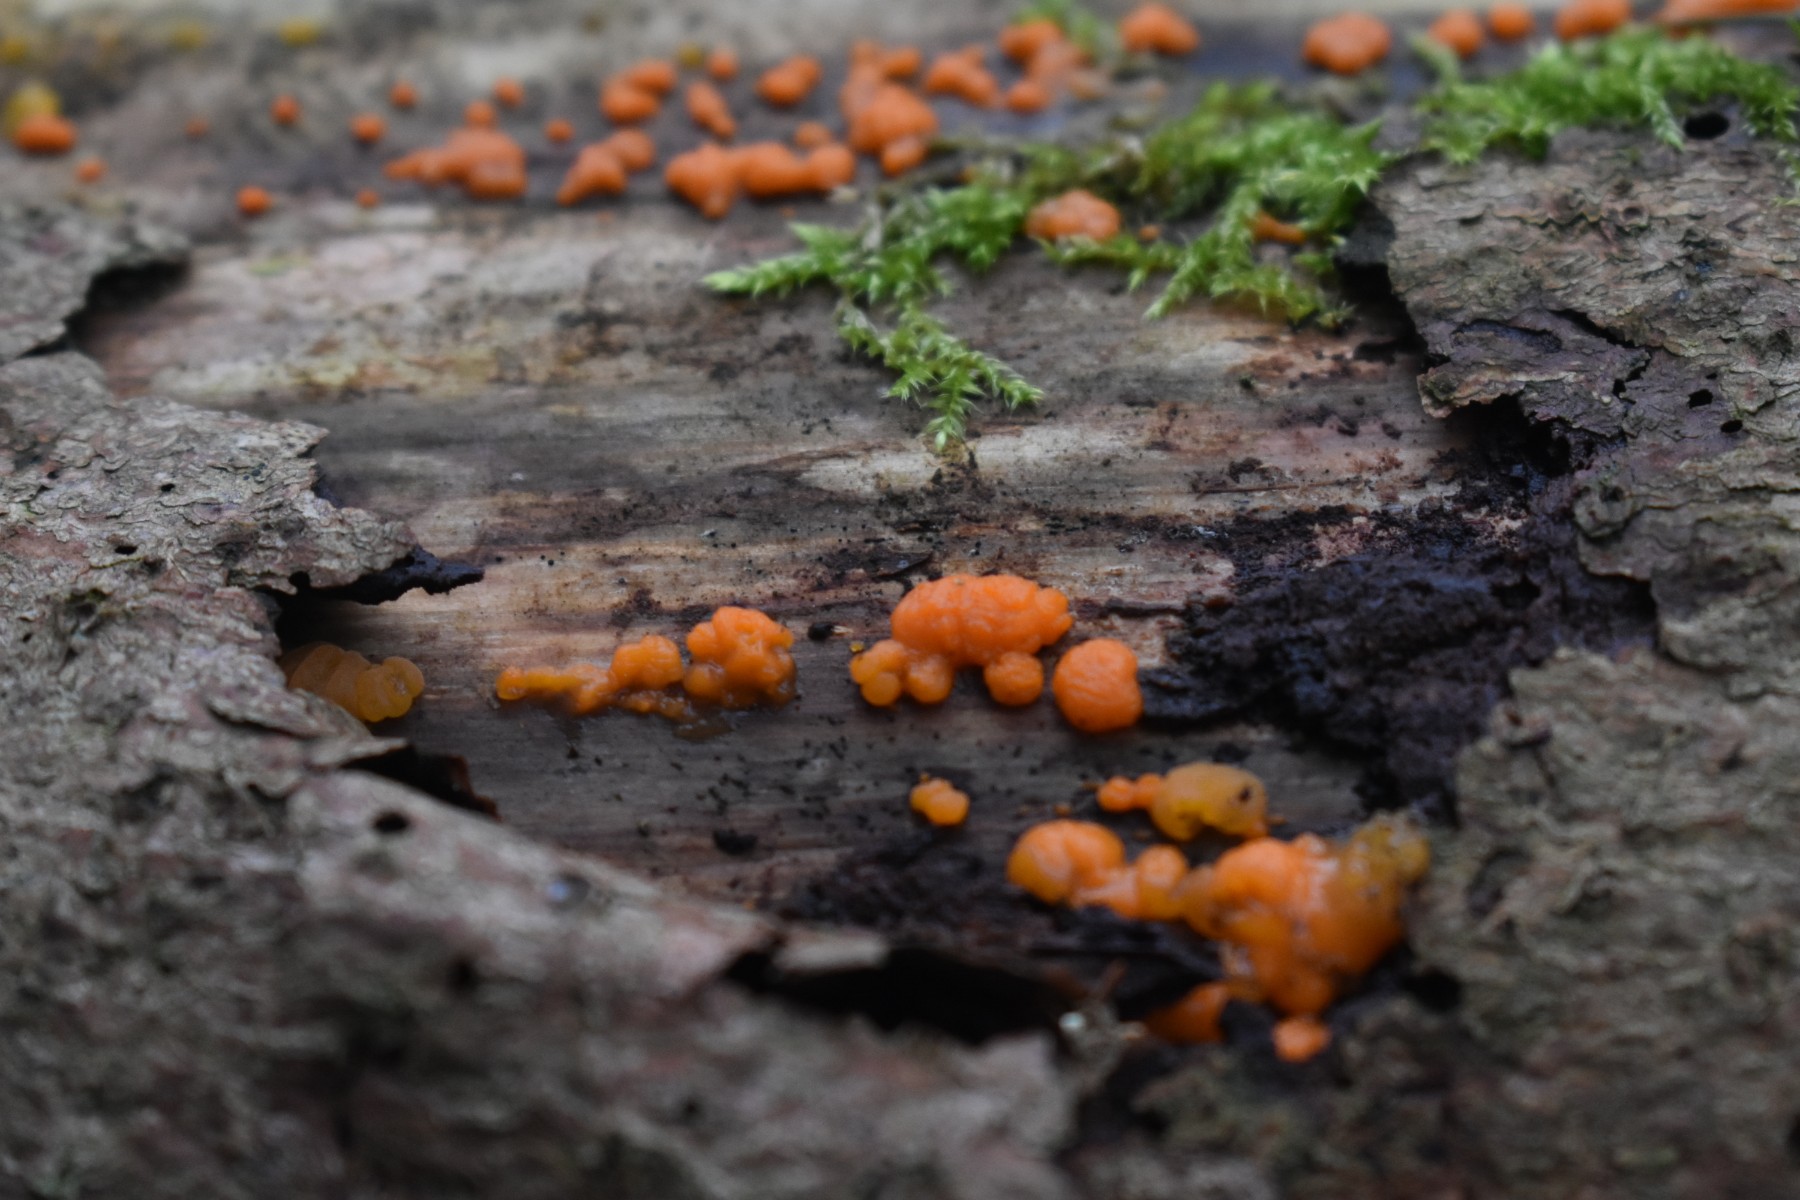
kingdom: Fungi
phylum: Basidiomycota
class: Dacrymycetes
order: Dacrymycetales
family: Dacrymycetaceae
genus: Dacrymyces
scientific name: Dacrymyces stillatus
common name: almindelig tåresvamp
